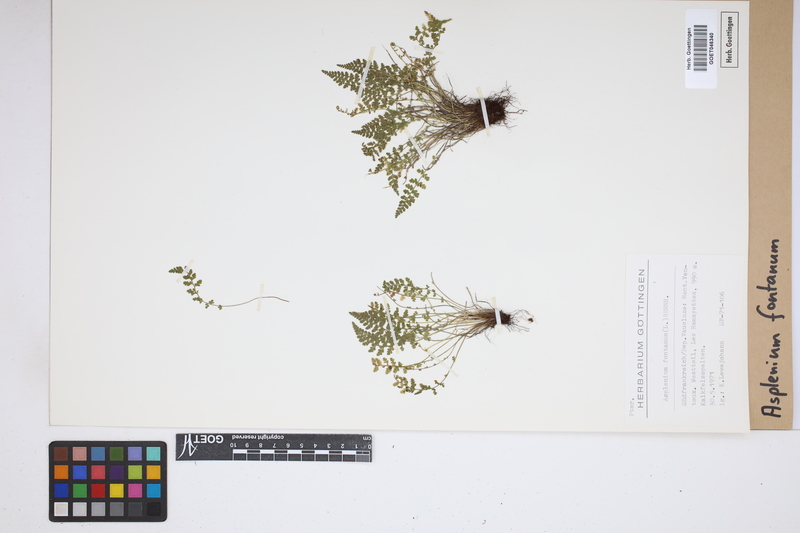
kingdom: Plantae
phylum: Tracheophyta
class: Polypodiopsida
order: Polypodiales
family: Aspleniaceae
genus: Asplenium
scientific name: Asplenium fontanum
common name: Fountain spleenwort
